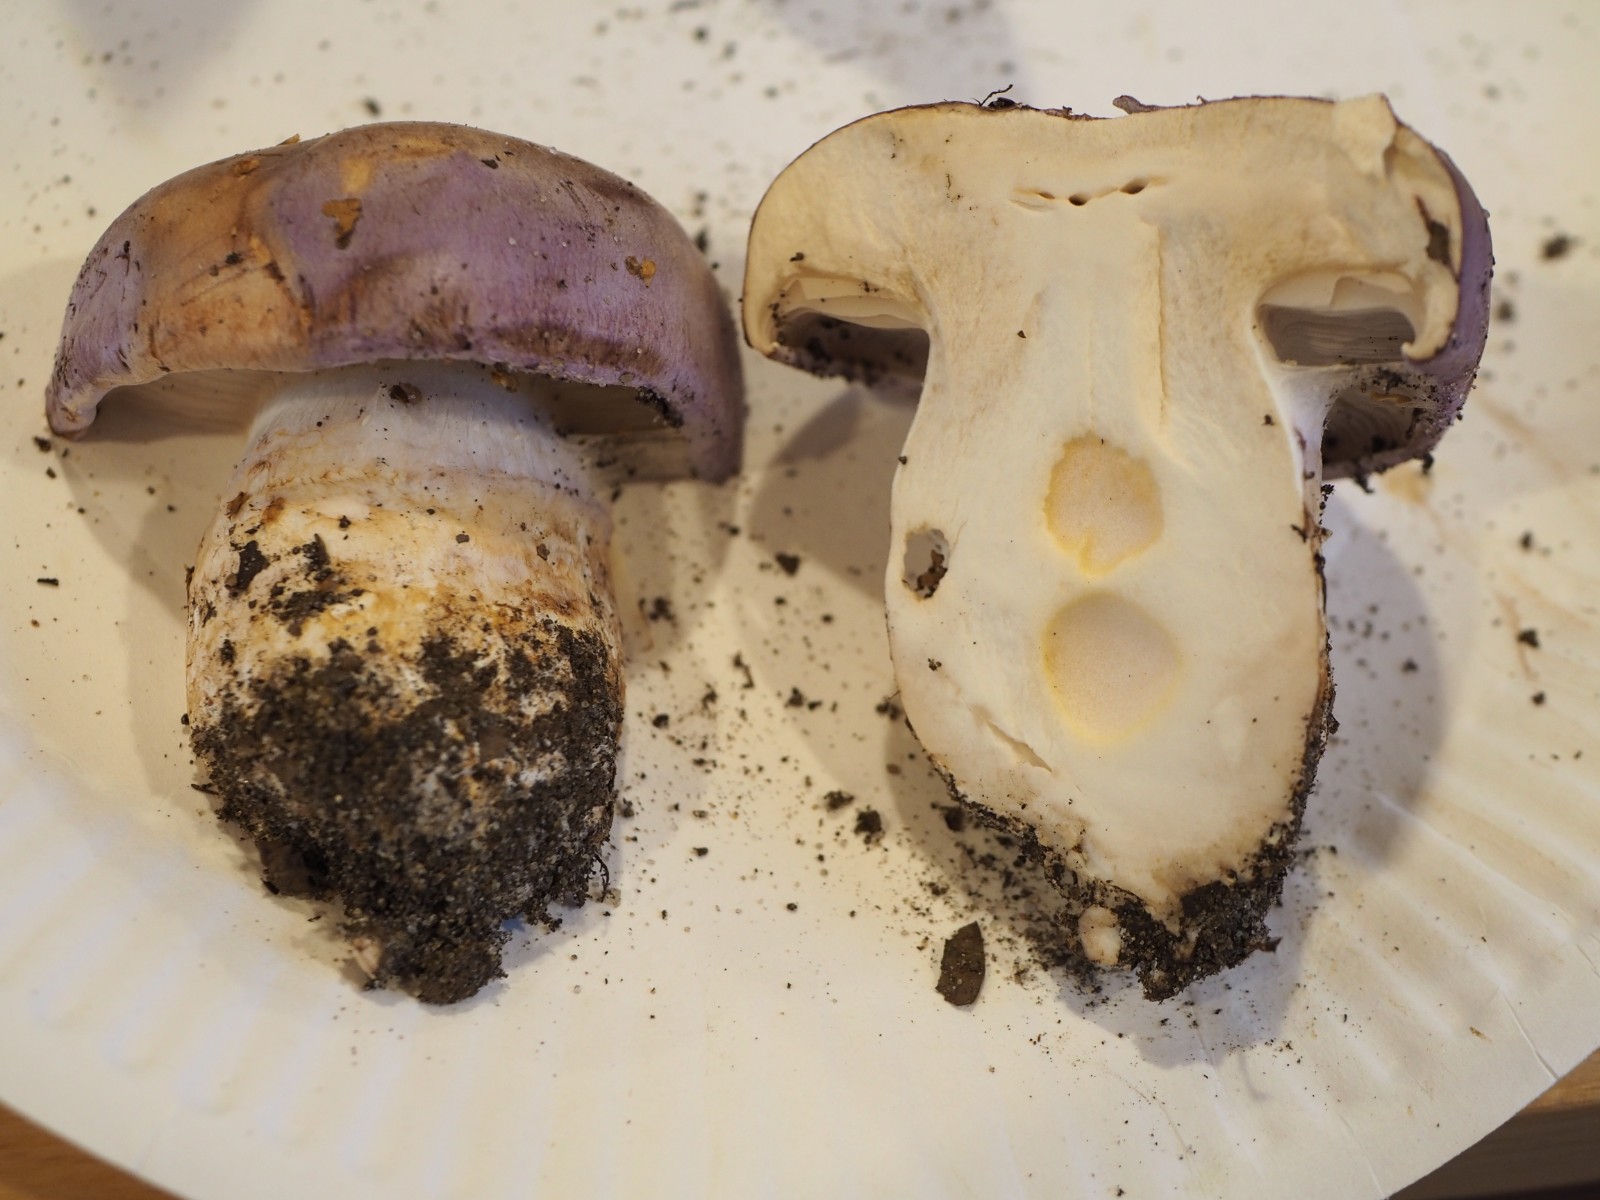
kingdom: Fungi
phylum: Basidiomycota
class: Agaricomycetes
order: Agaricales
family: Cortinariaceae
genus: Phlegmacium
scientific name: Phlegmacium balteatocumatile
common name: violettrådet slørhat
